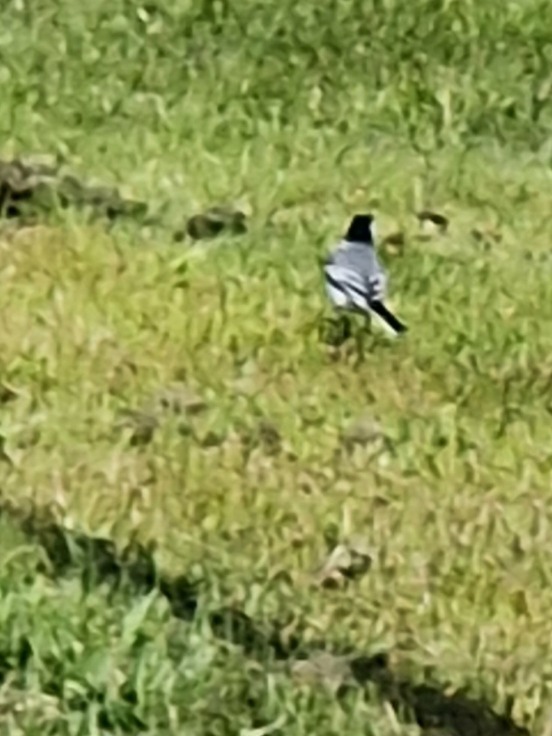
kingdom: Animalia
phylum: Chordata
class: Aves
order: Passeriformes
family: Motacillidae
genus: Motacilla
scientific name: Motacilla alba
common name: Hvid vipstjert
